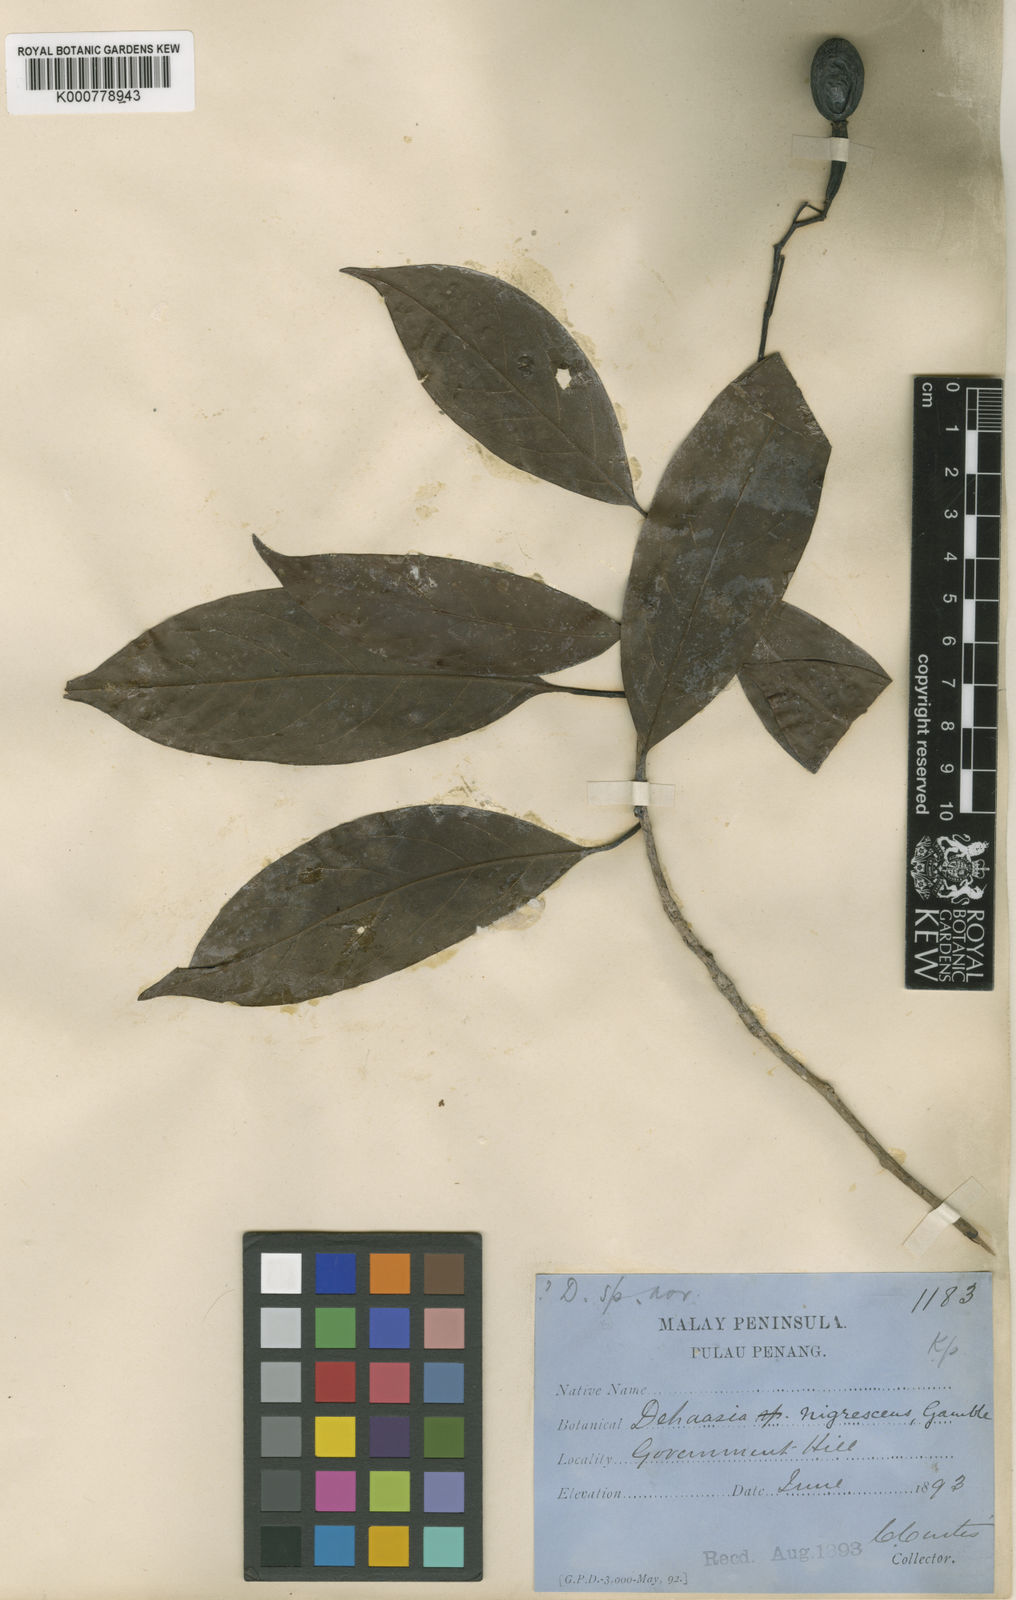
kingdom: Plantae
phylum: Tracheophyta
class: Magnoliopsida
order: Laurales
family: Lauraceae
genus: Alseodaphne
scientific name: Alseodaphne nigrescens
